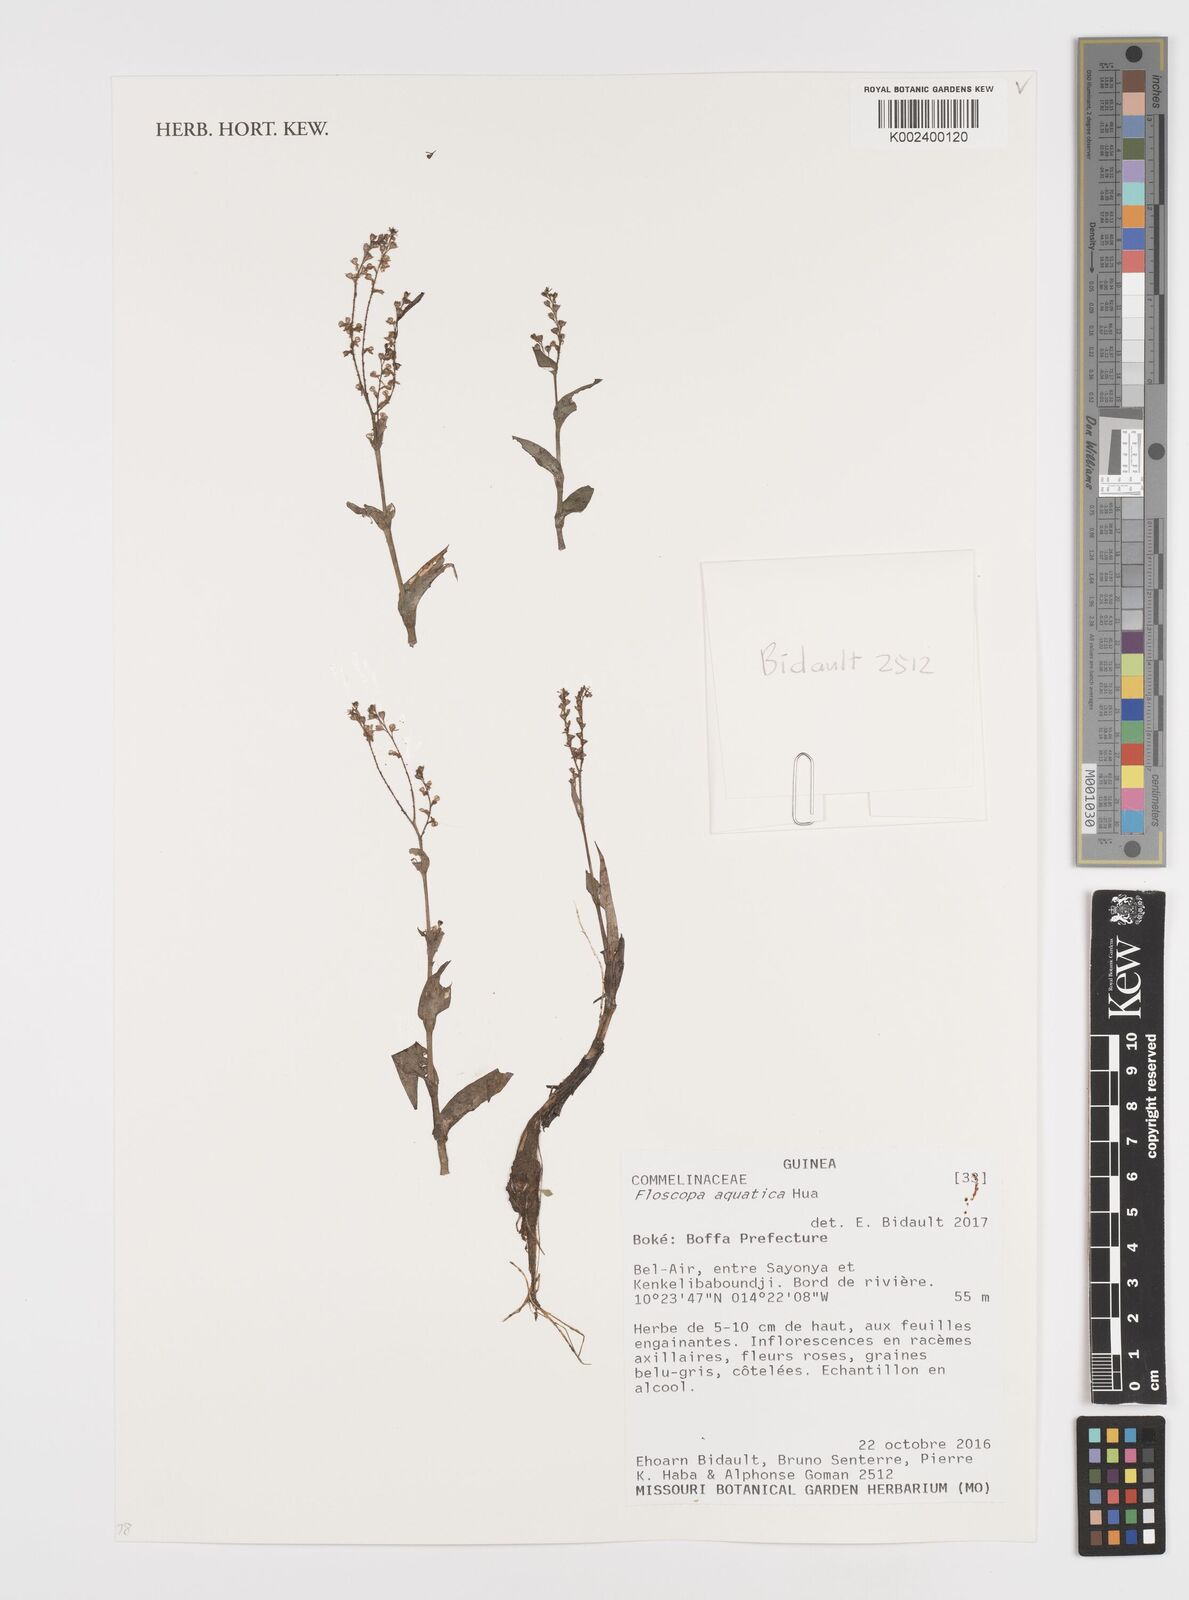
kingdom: Plantae
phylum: Tracheophyta
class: Liliopsida
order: Commelinales
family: Commelinaceae
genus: Floscopa
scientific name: Floscopa aquatica
